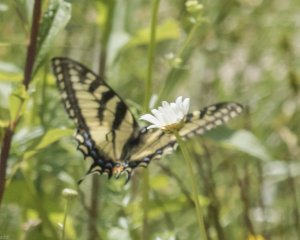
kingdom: Animalia
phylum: Arthropoda
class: Insecta
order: Lepidoptera
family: Papilionidae
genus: Pterourus
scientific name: Pterourus canadensis
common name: Canadian Tiger Swallowtail
